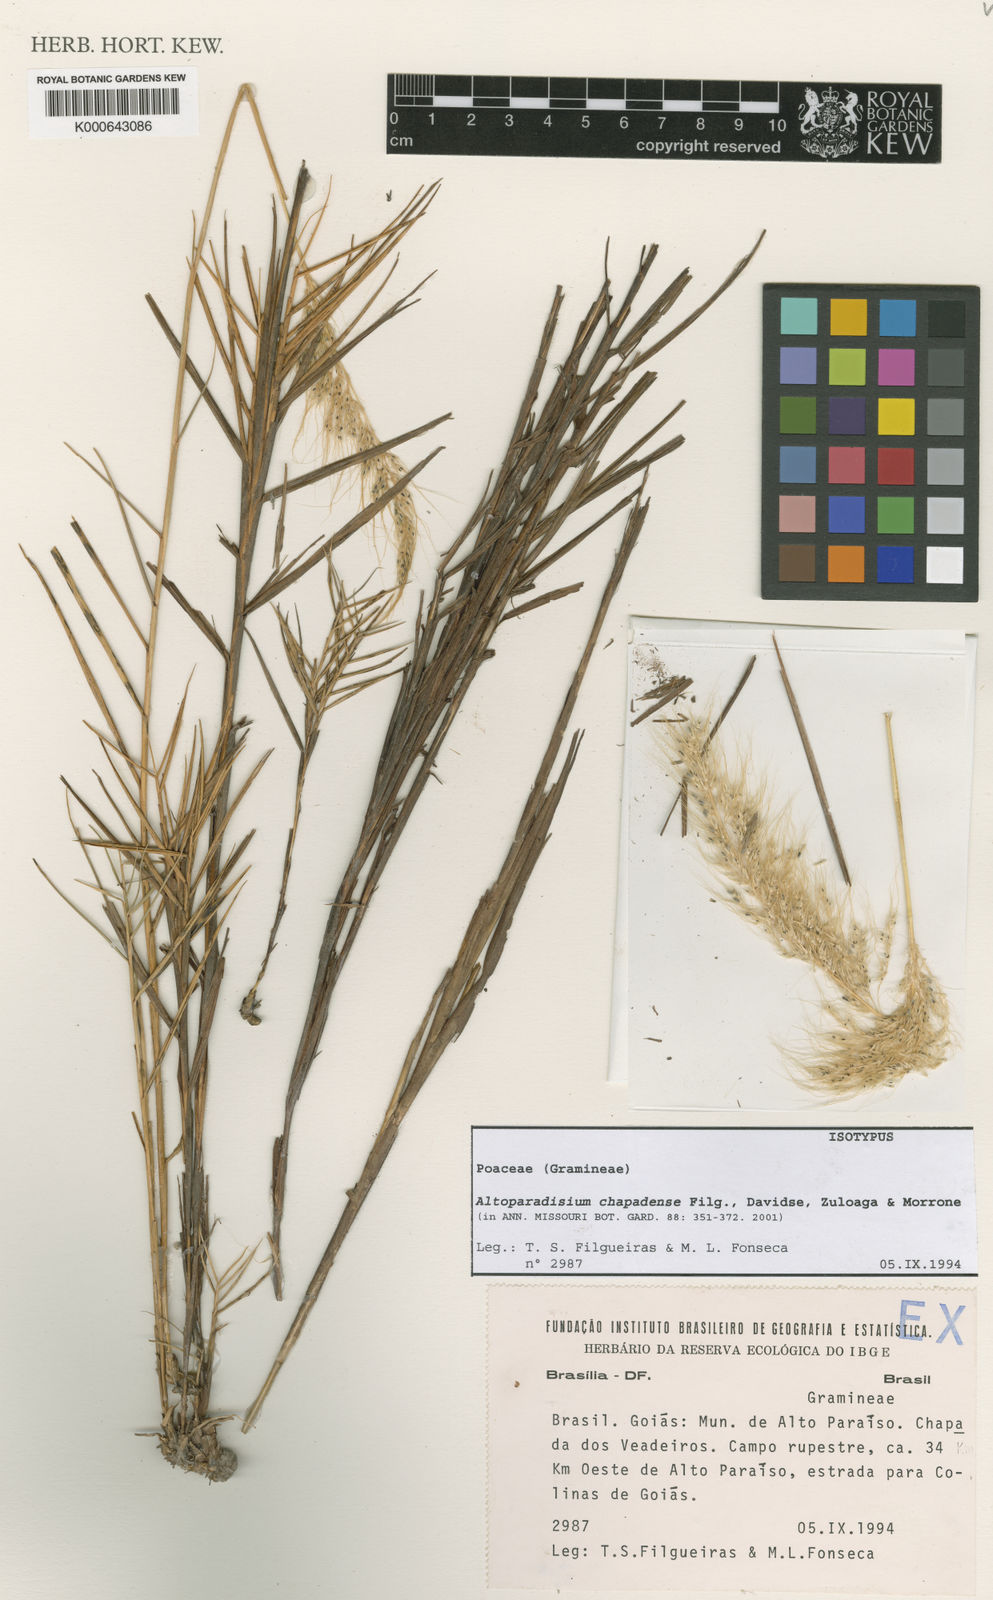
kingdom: Plantae
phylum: Tracheophyta
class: Liliopsida
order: Poales
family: Poaceae
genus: Arthropogon
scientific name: Arthropogon
